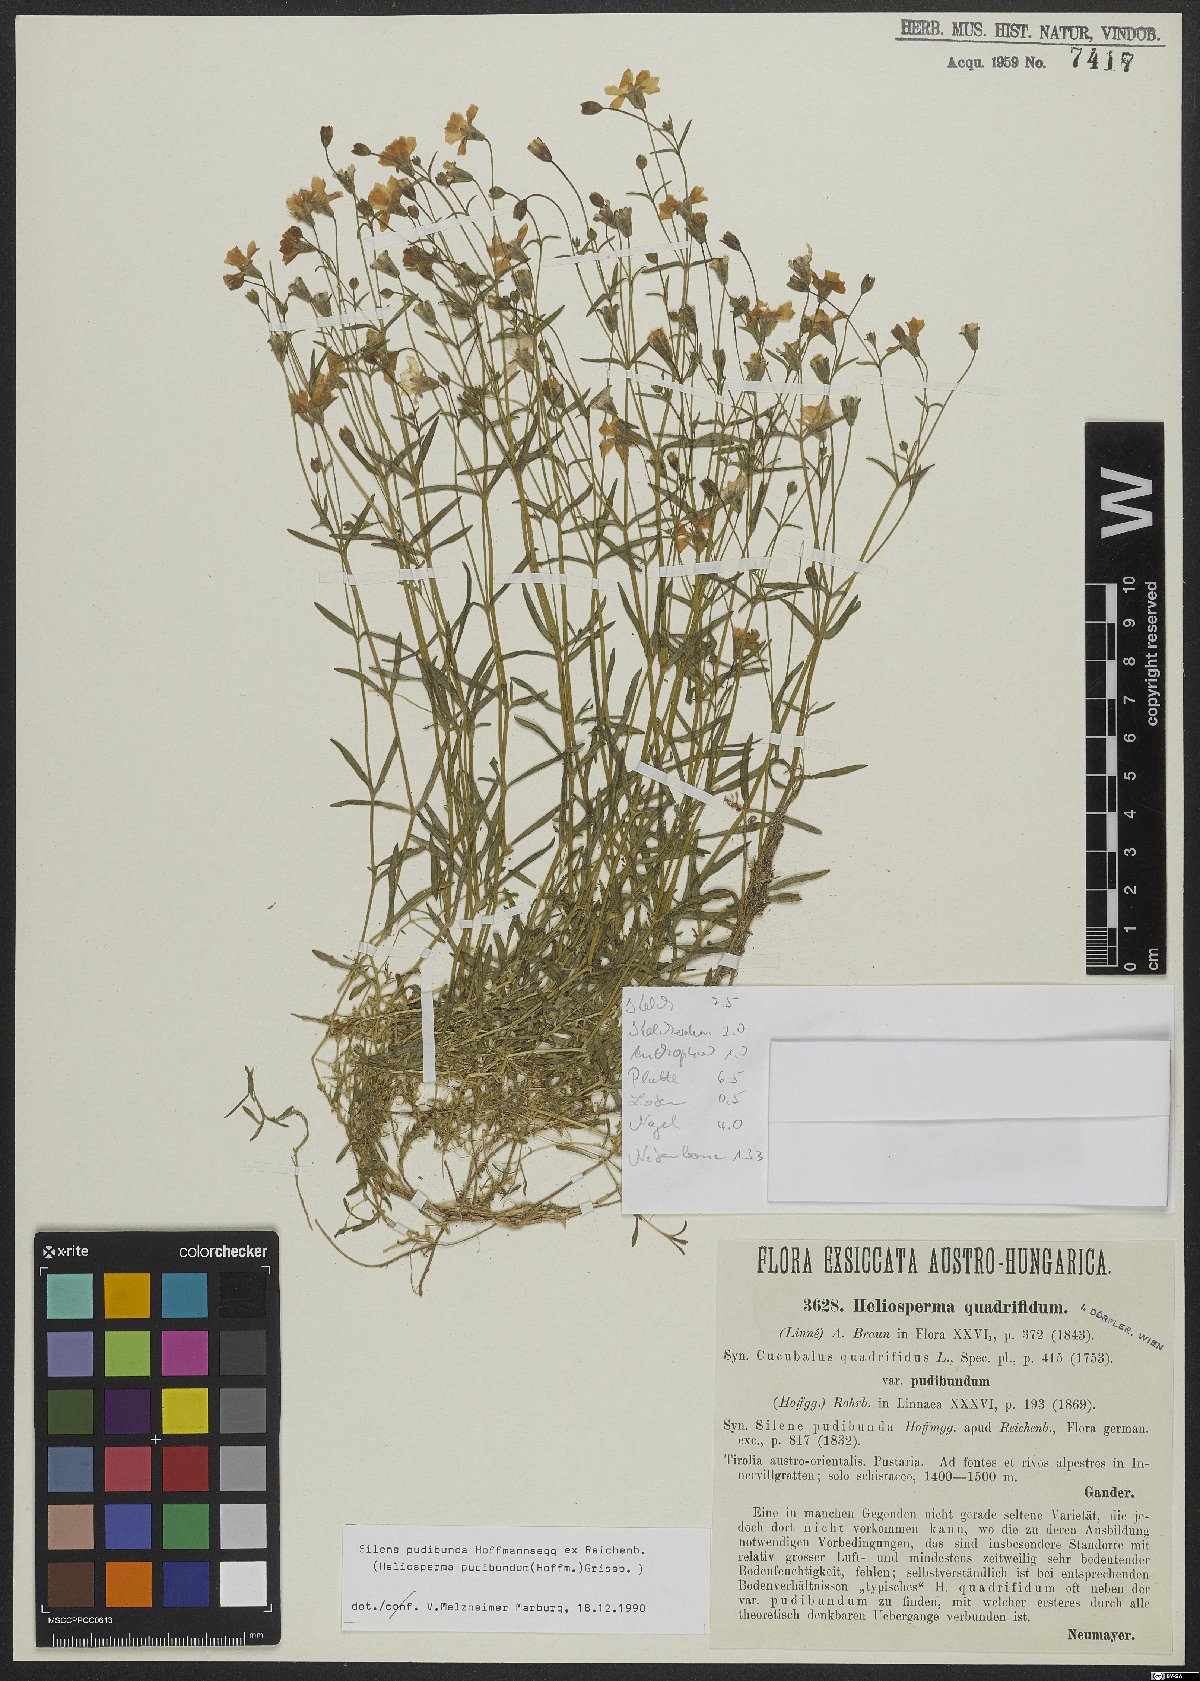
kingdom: Plantae
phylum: Tracheophyta
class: Magnoliopsida
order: Caryophyllales
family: Caryophyllaceae
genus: Heliosperma
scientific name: Heliosperma pudibundum
